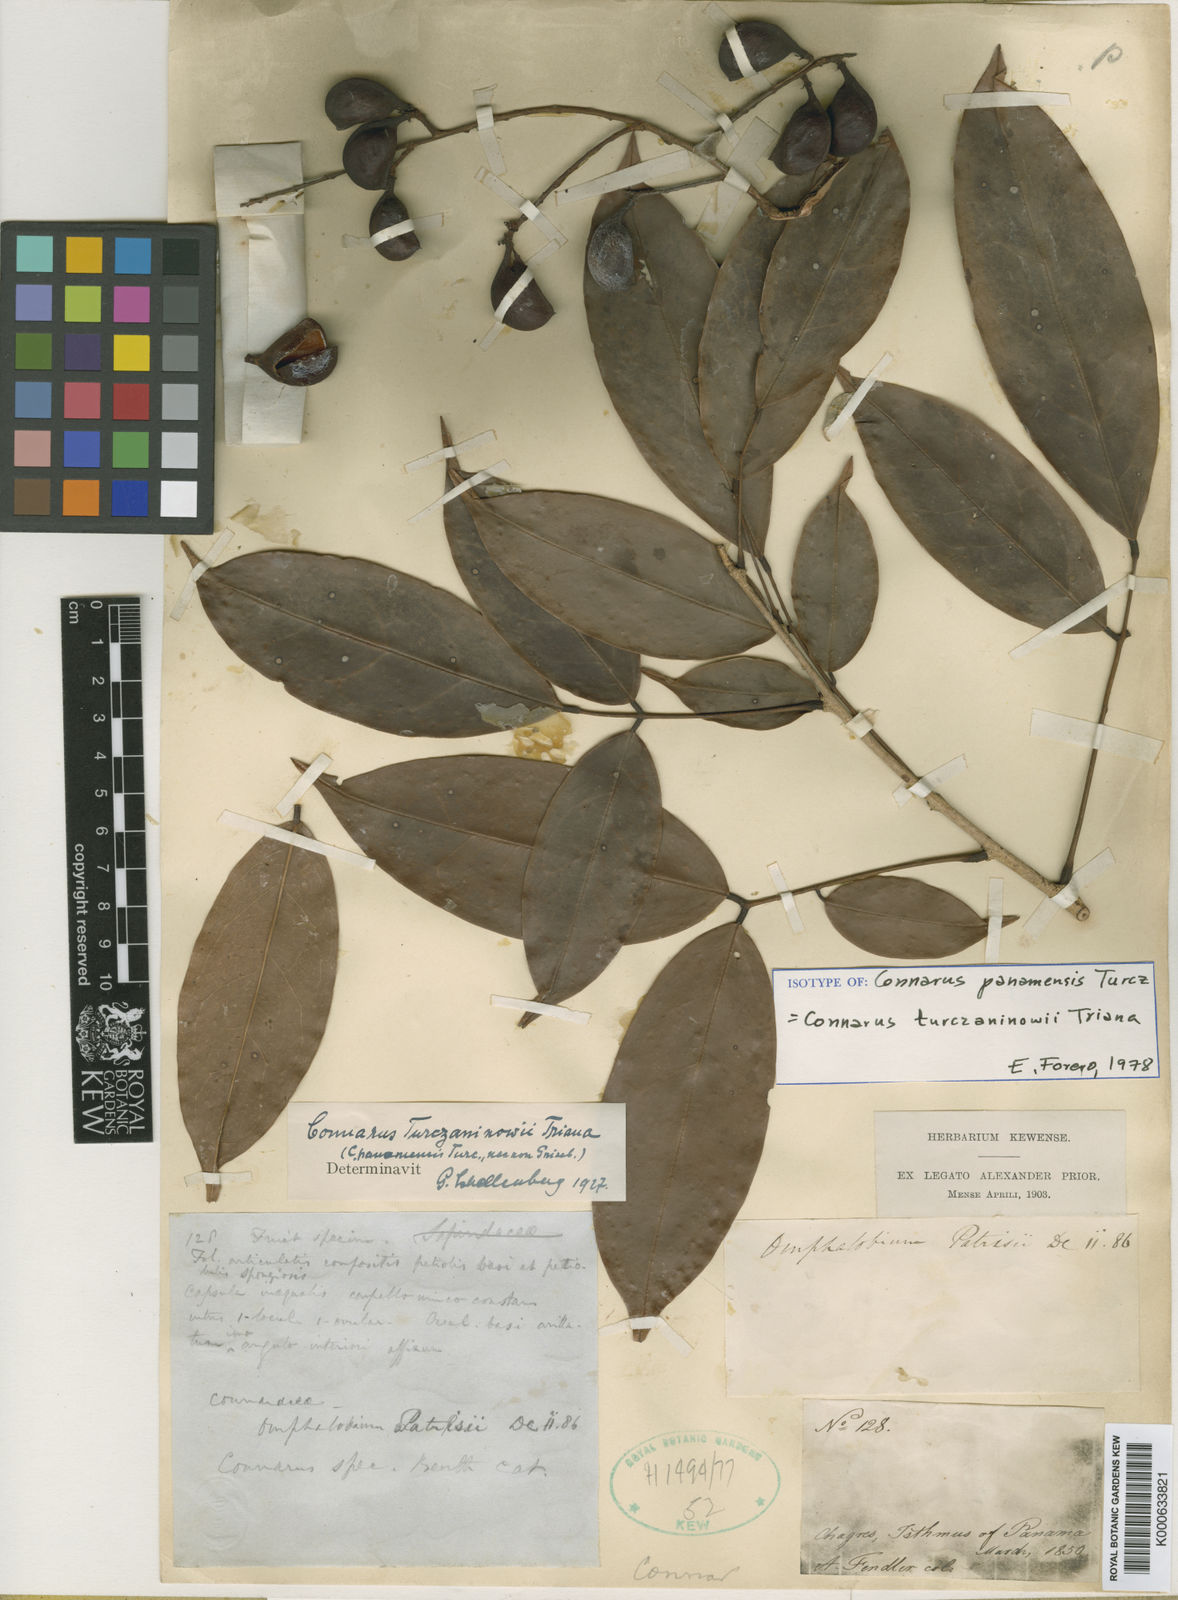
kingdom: Plantae
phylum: Tracheophyta
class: Magnoliopsida
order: Oxalidales
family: Connaraceae
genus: Connarus
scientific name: Connarus turczaninowii
